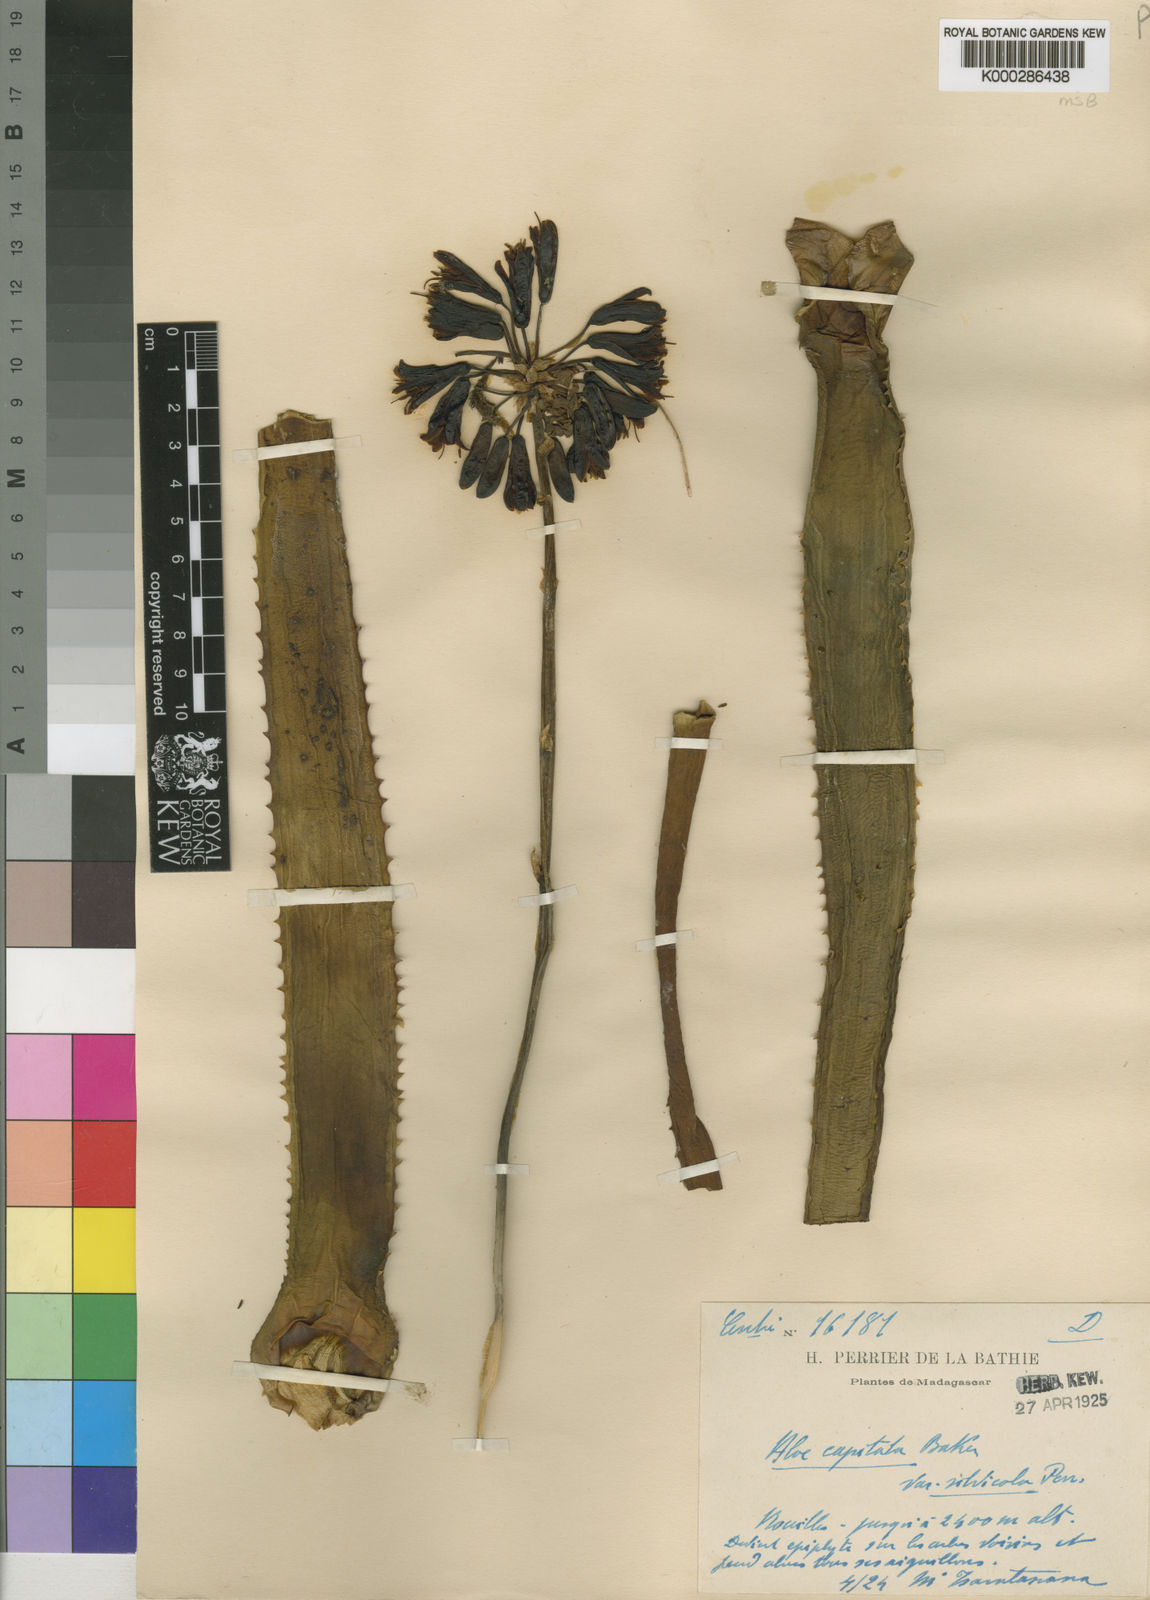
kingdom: Plantae
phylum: Tracheophyta
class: Liliopsida
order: Asparagales
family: Asphodelaceae
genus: Aloe
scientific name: Aloe capitata
